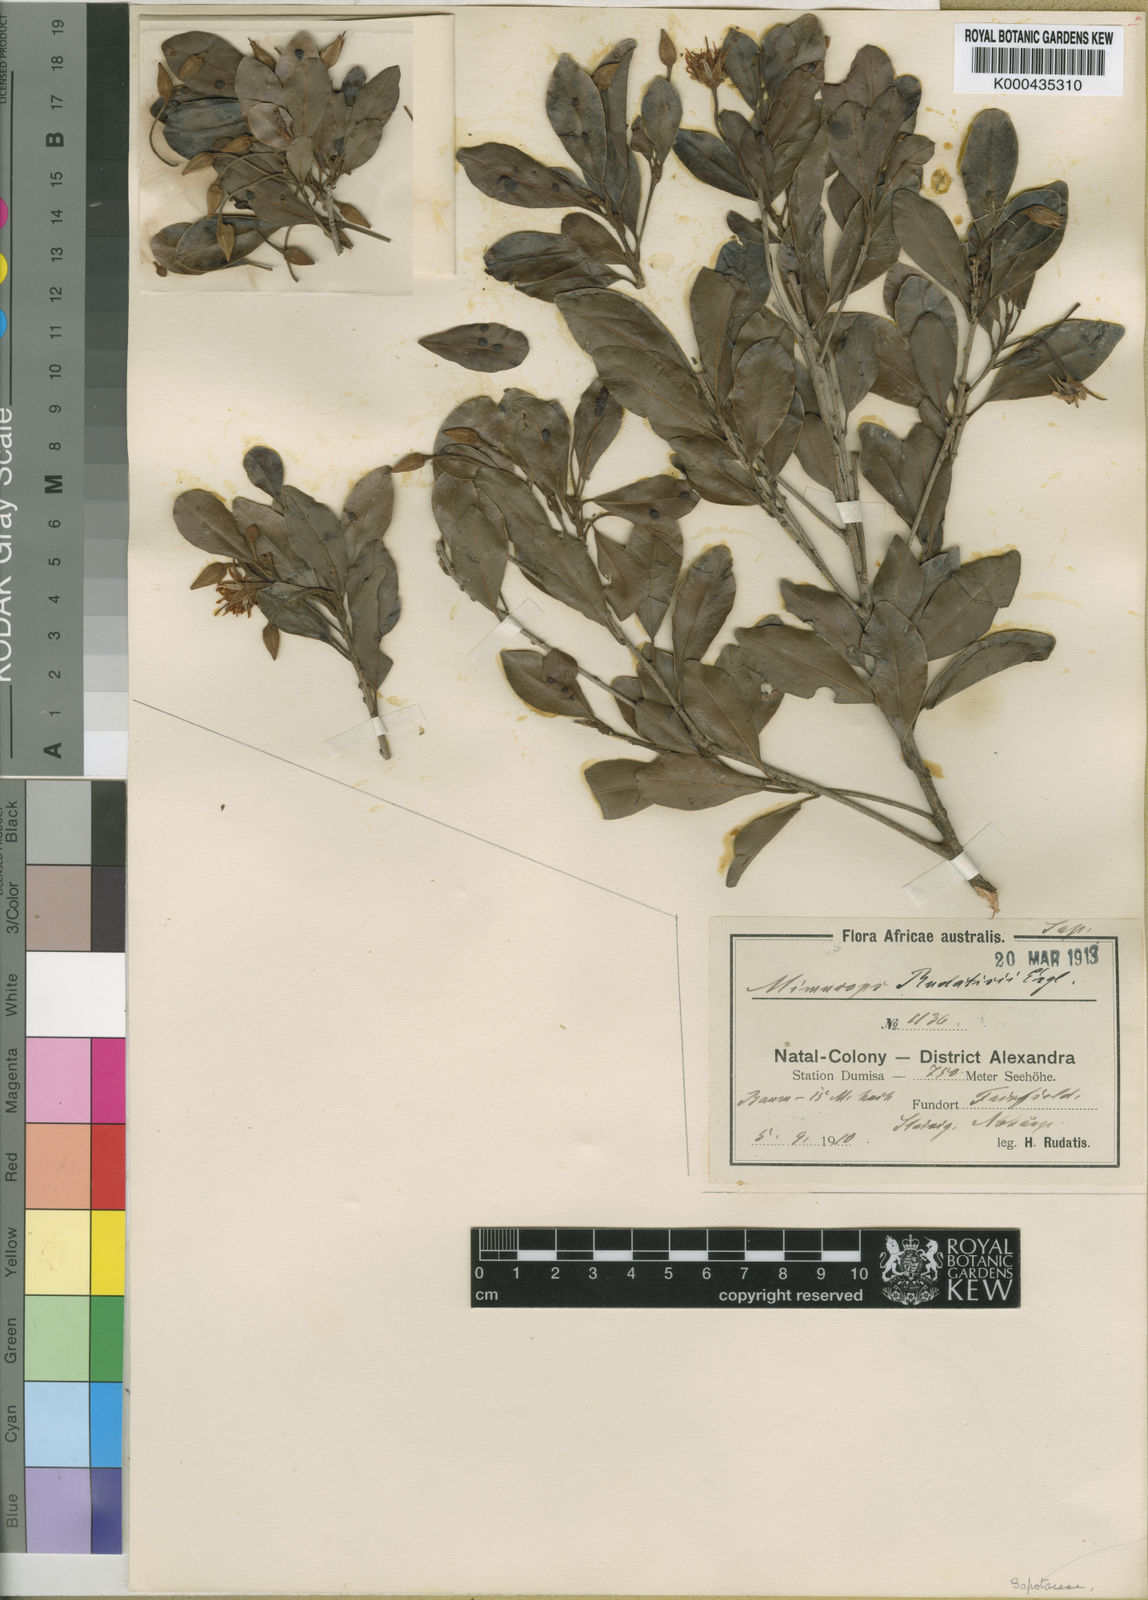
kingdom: Plantae
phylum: Tracheophyta
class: Magnoliopsida
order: Ericales
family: Sapotaceae
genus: Mimusops
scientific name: Mimusops obovata
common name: Red milkwood
